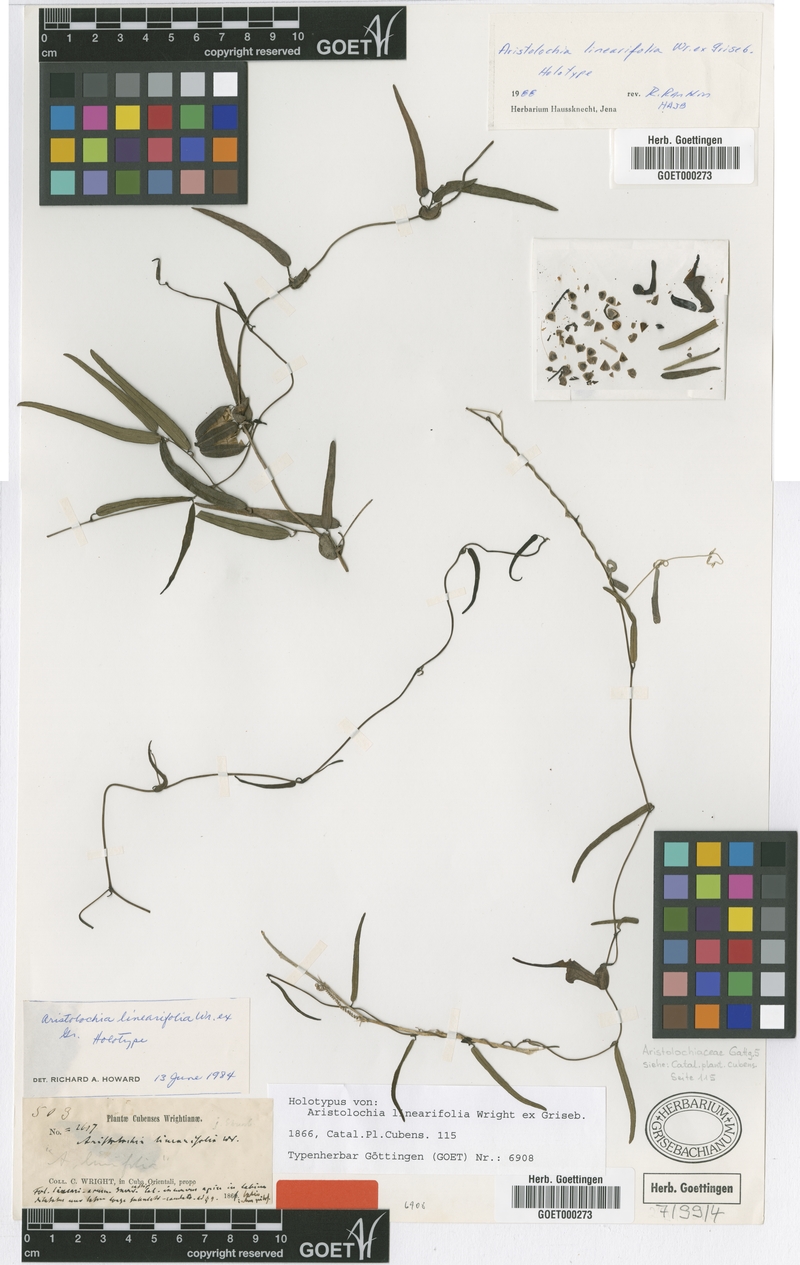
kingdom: Plantae
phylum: Tracheophyta
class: Magnoliopsida
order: Piperales
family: Aristolochiaceae
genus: Aristolochia
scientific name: Aristolochia linearifolia
